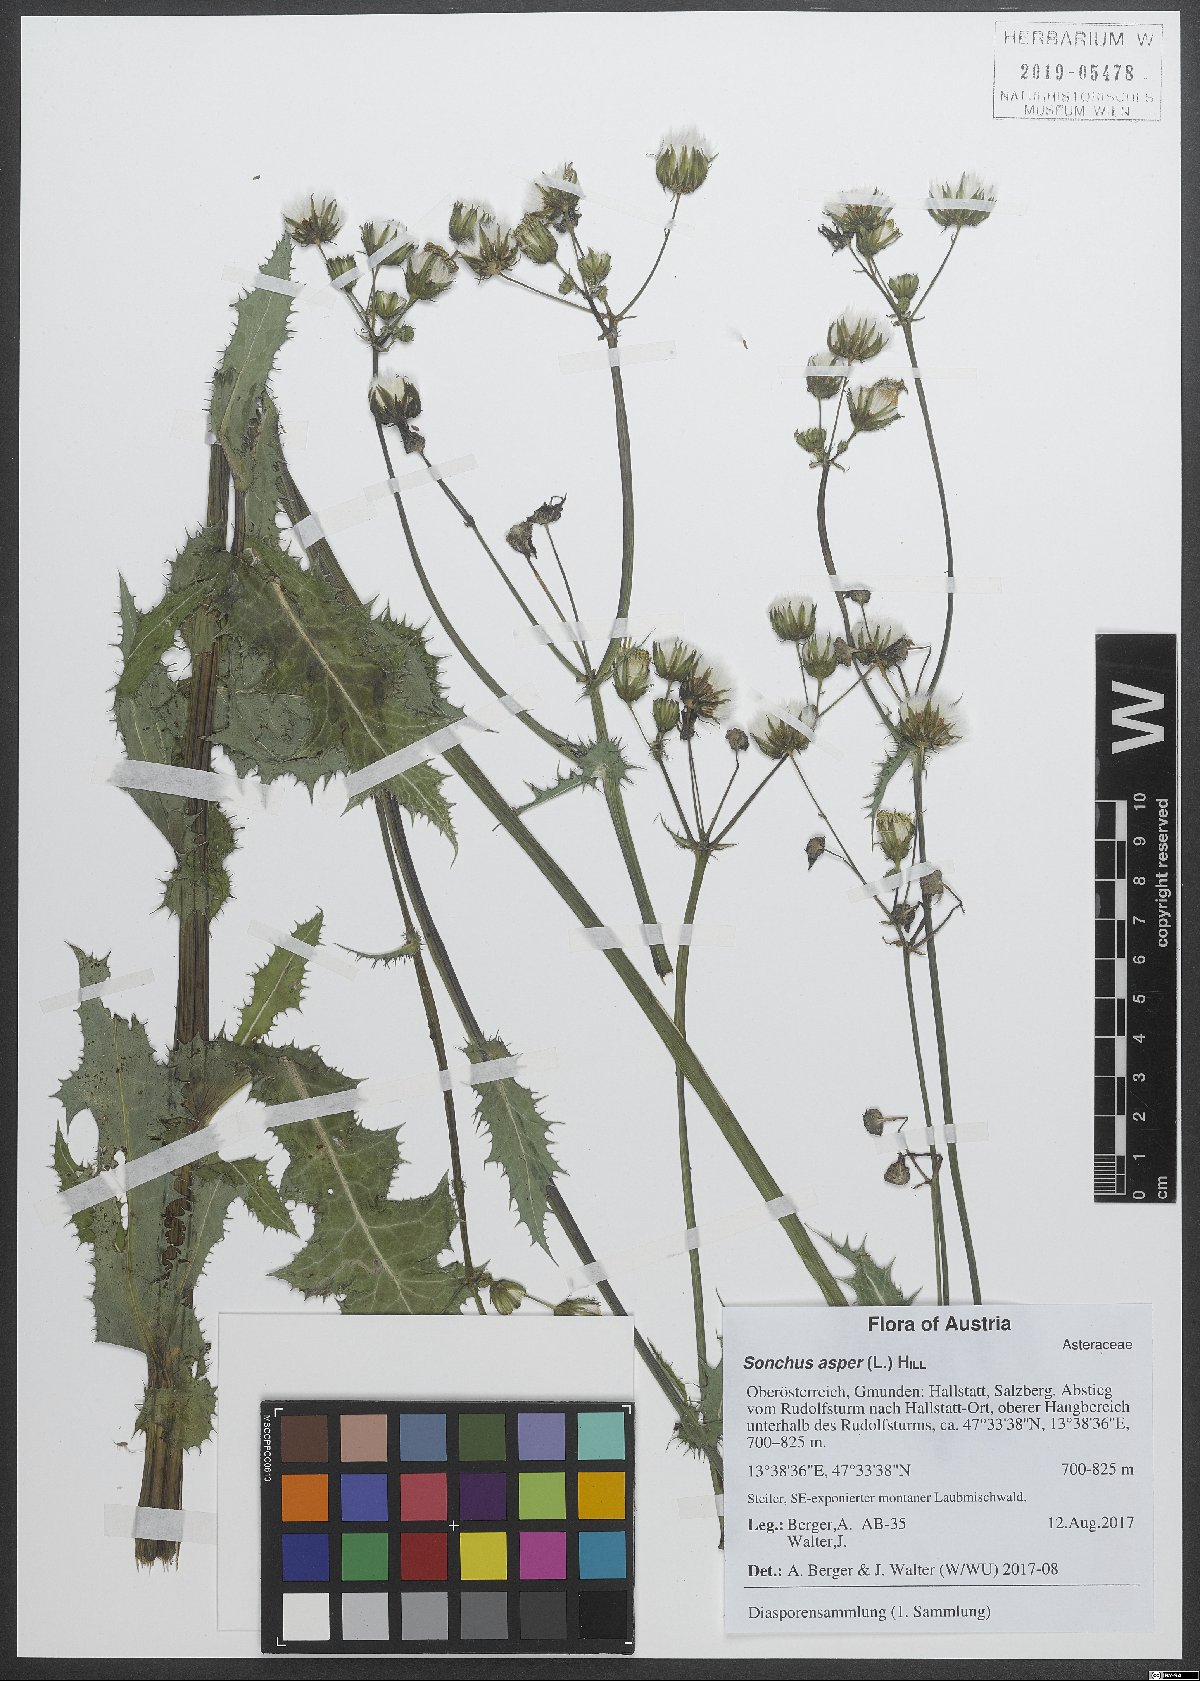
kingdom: Plantae
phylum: Tracheophyta
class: Magnoliopsida
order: Asterales
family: Asteraceae
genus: Sonchus
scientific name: Sonchus asper
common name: Prickly sow-thistle
